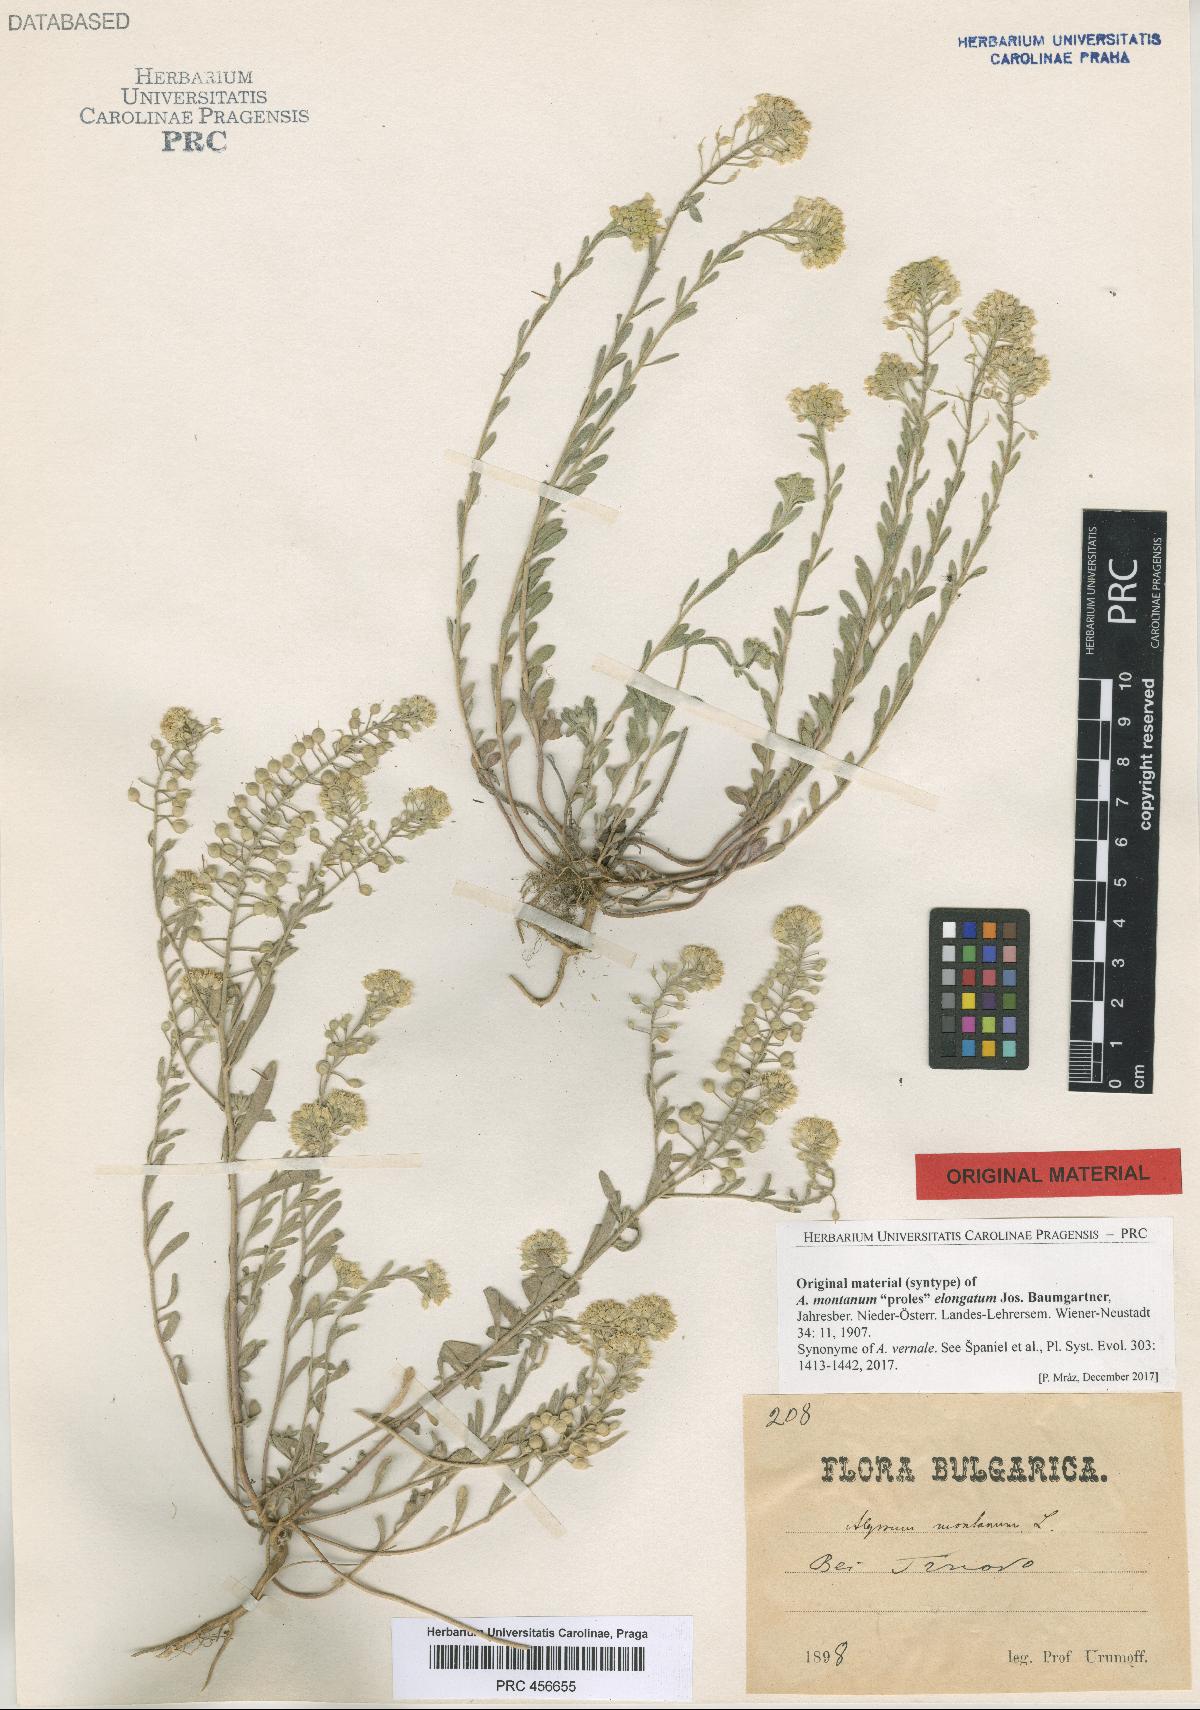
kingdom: Plantae
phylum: Tracheophyta
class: Magnoliopsida
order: Brassicales
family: Brassicaceae
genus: Alyssum
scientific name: Alyssum montanum
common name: Mountain alison
